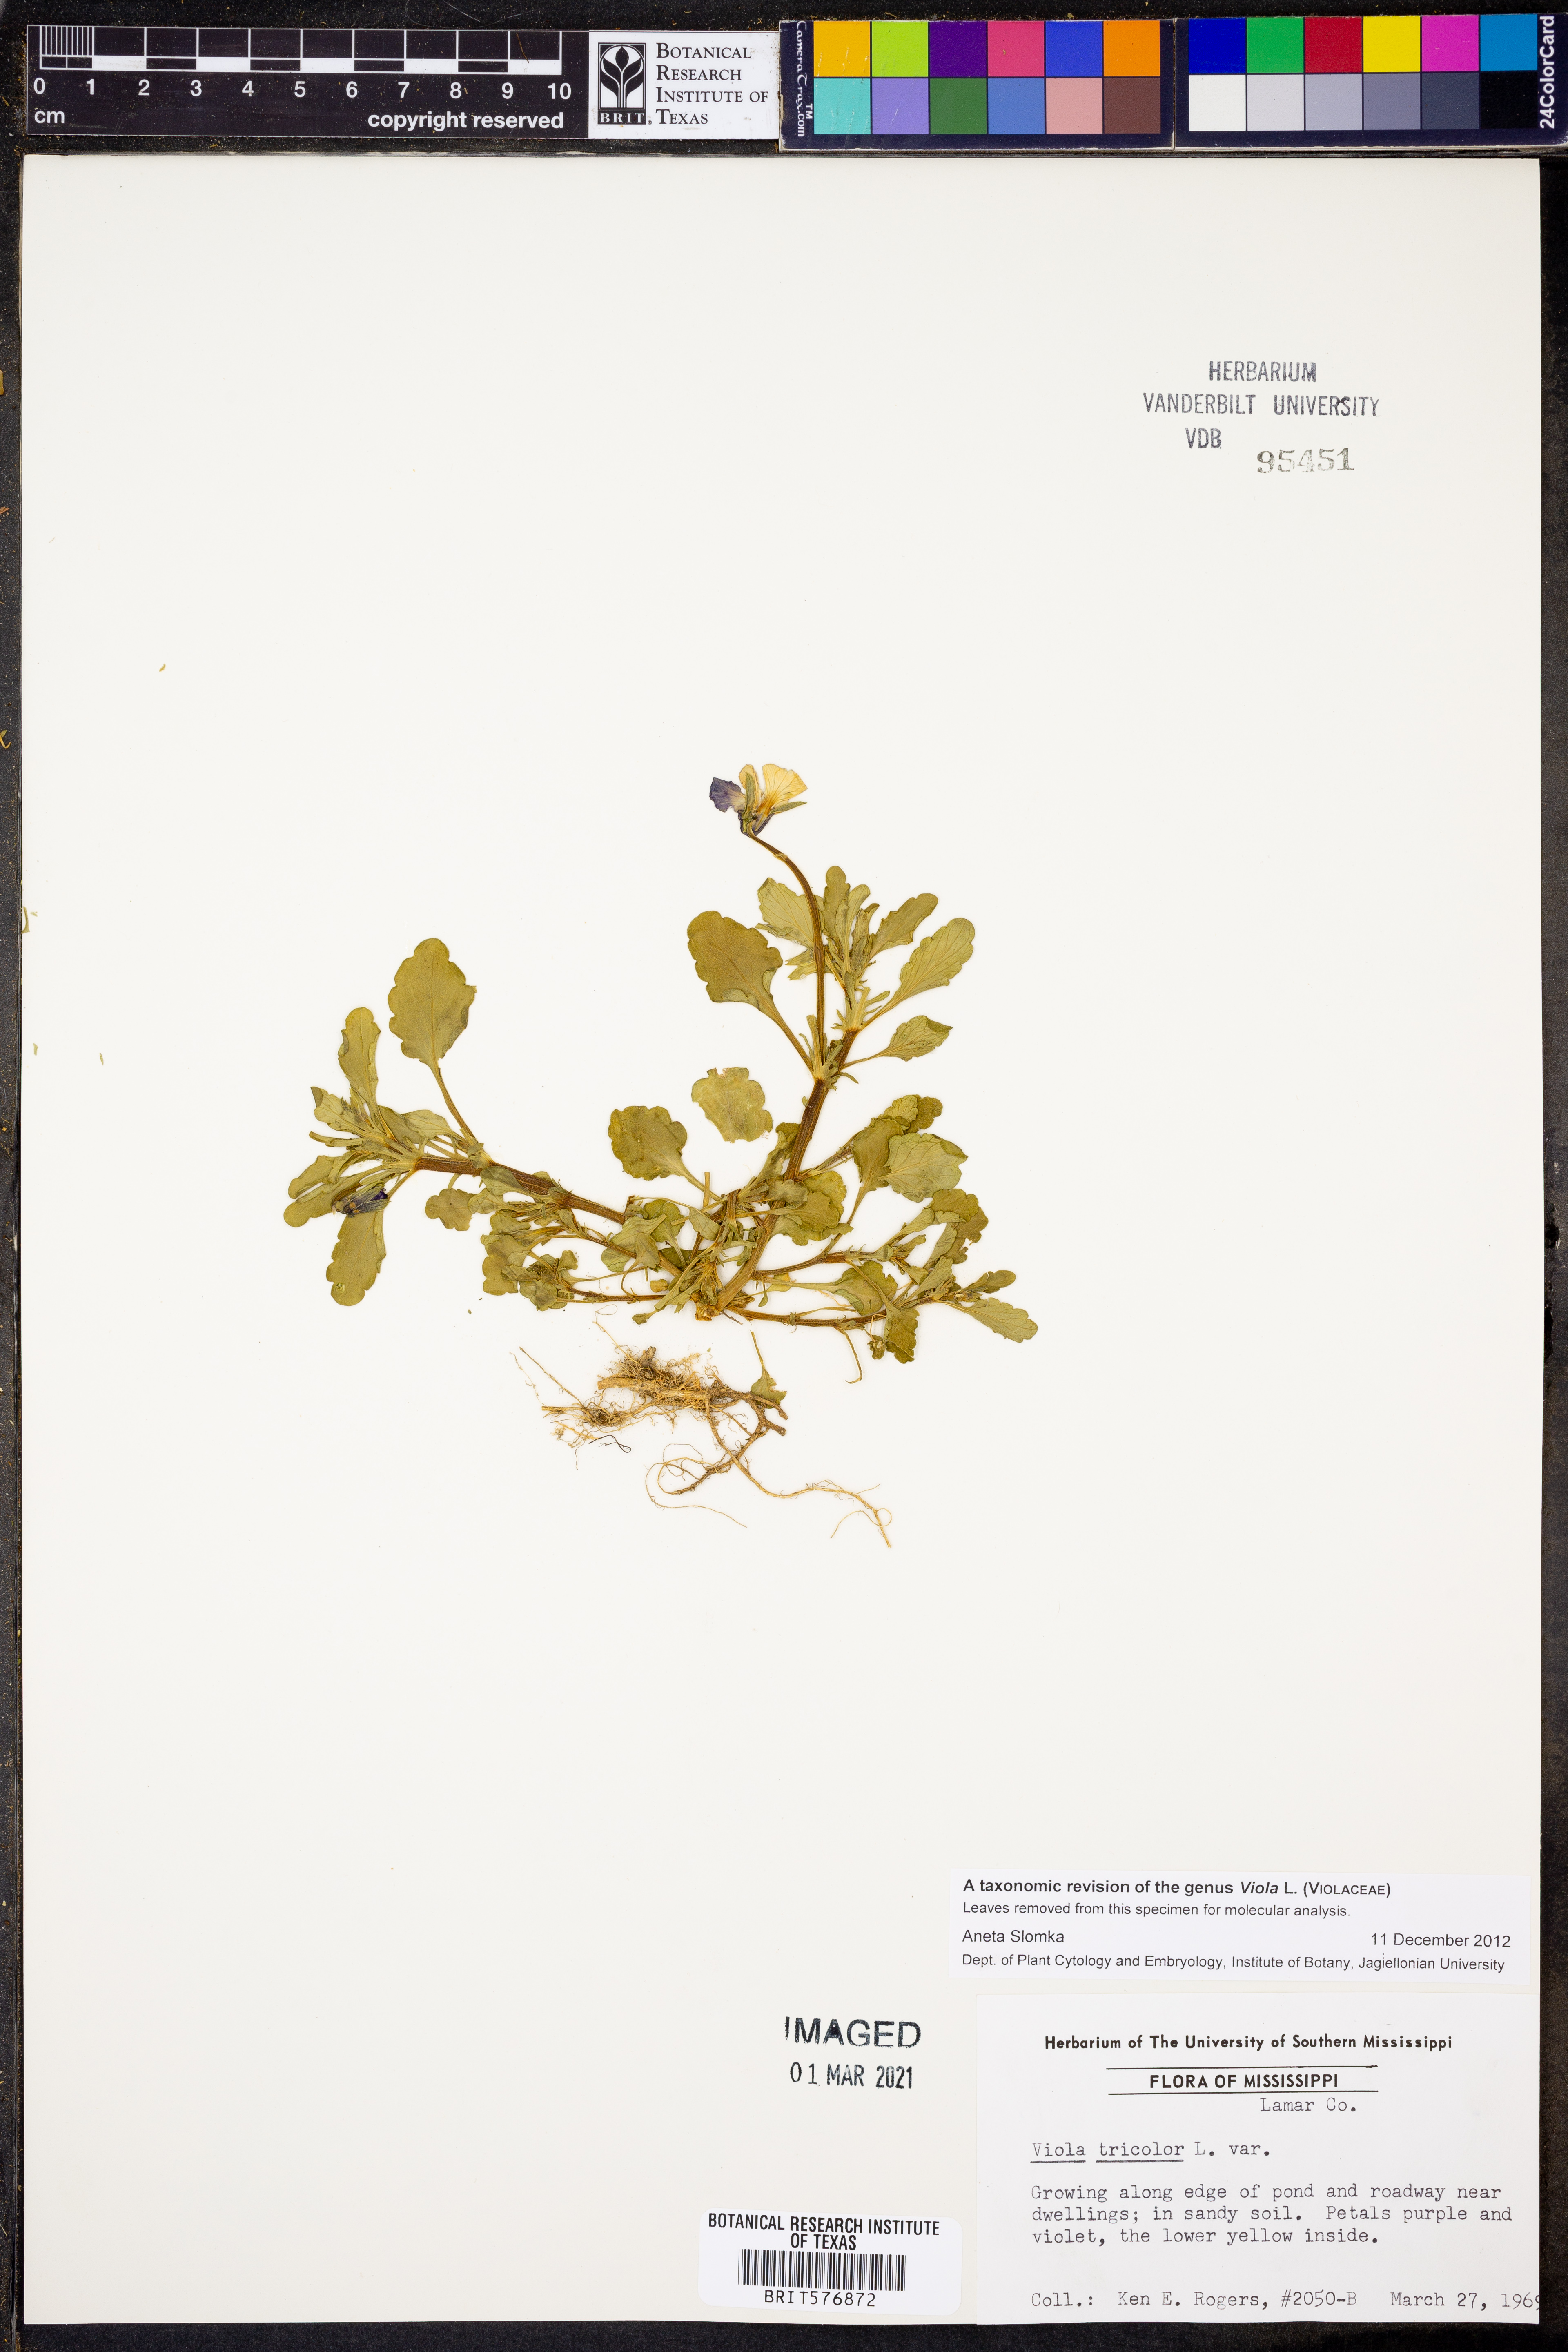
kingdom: Plantae
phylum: Tracheophyta
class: Magnoliopsida
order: Malpighiales
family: Violaceae
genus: Viola
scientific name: Viola tricolor
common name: Pansy
